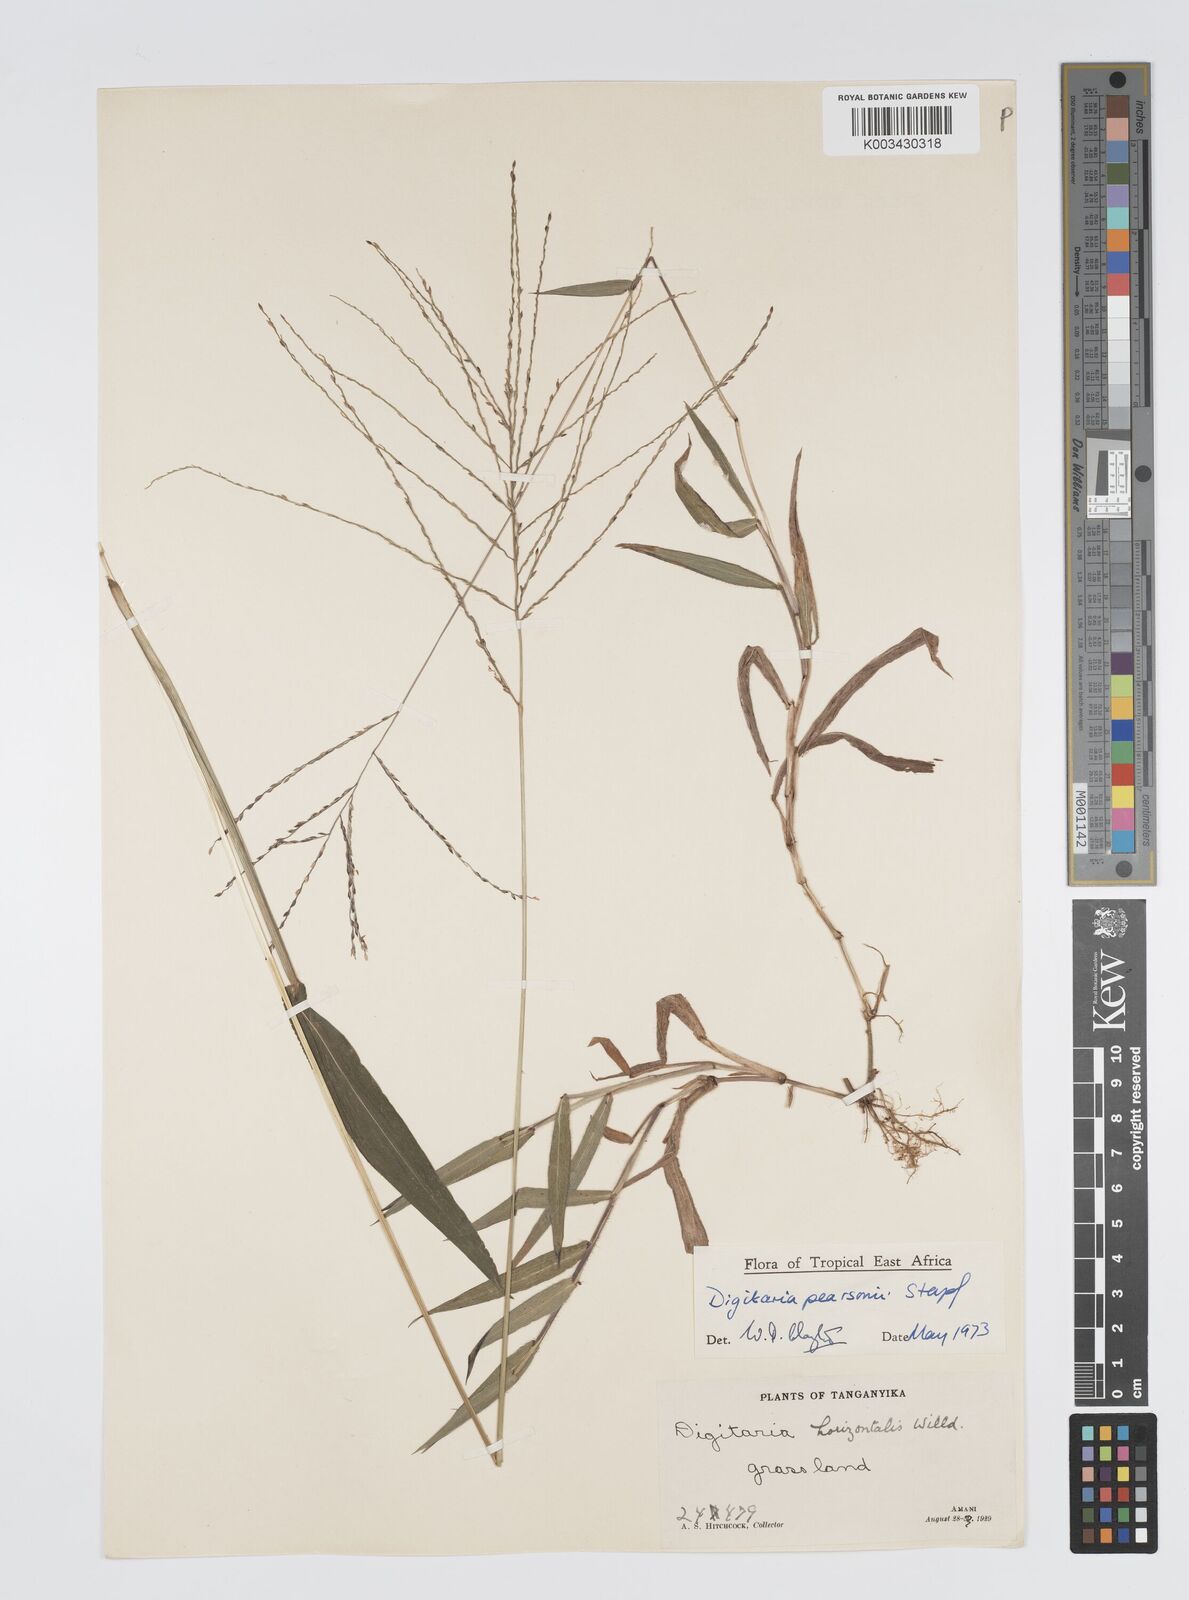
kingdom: Plantae
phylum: Tracheophyta
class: Liliopsida
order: Poales
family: Poaceae
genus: Digitaria
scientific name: Digitaria pearsonii
